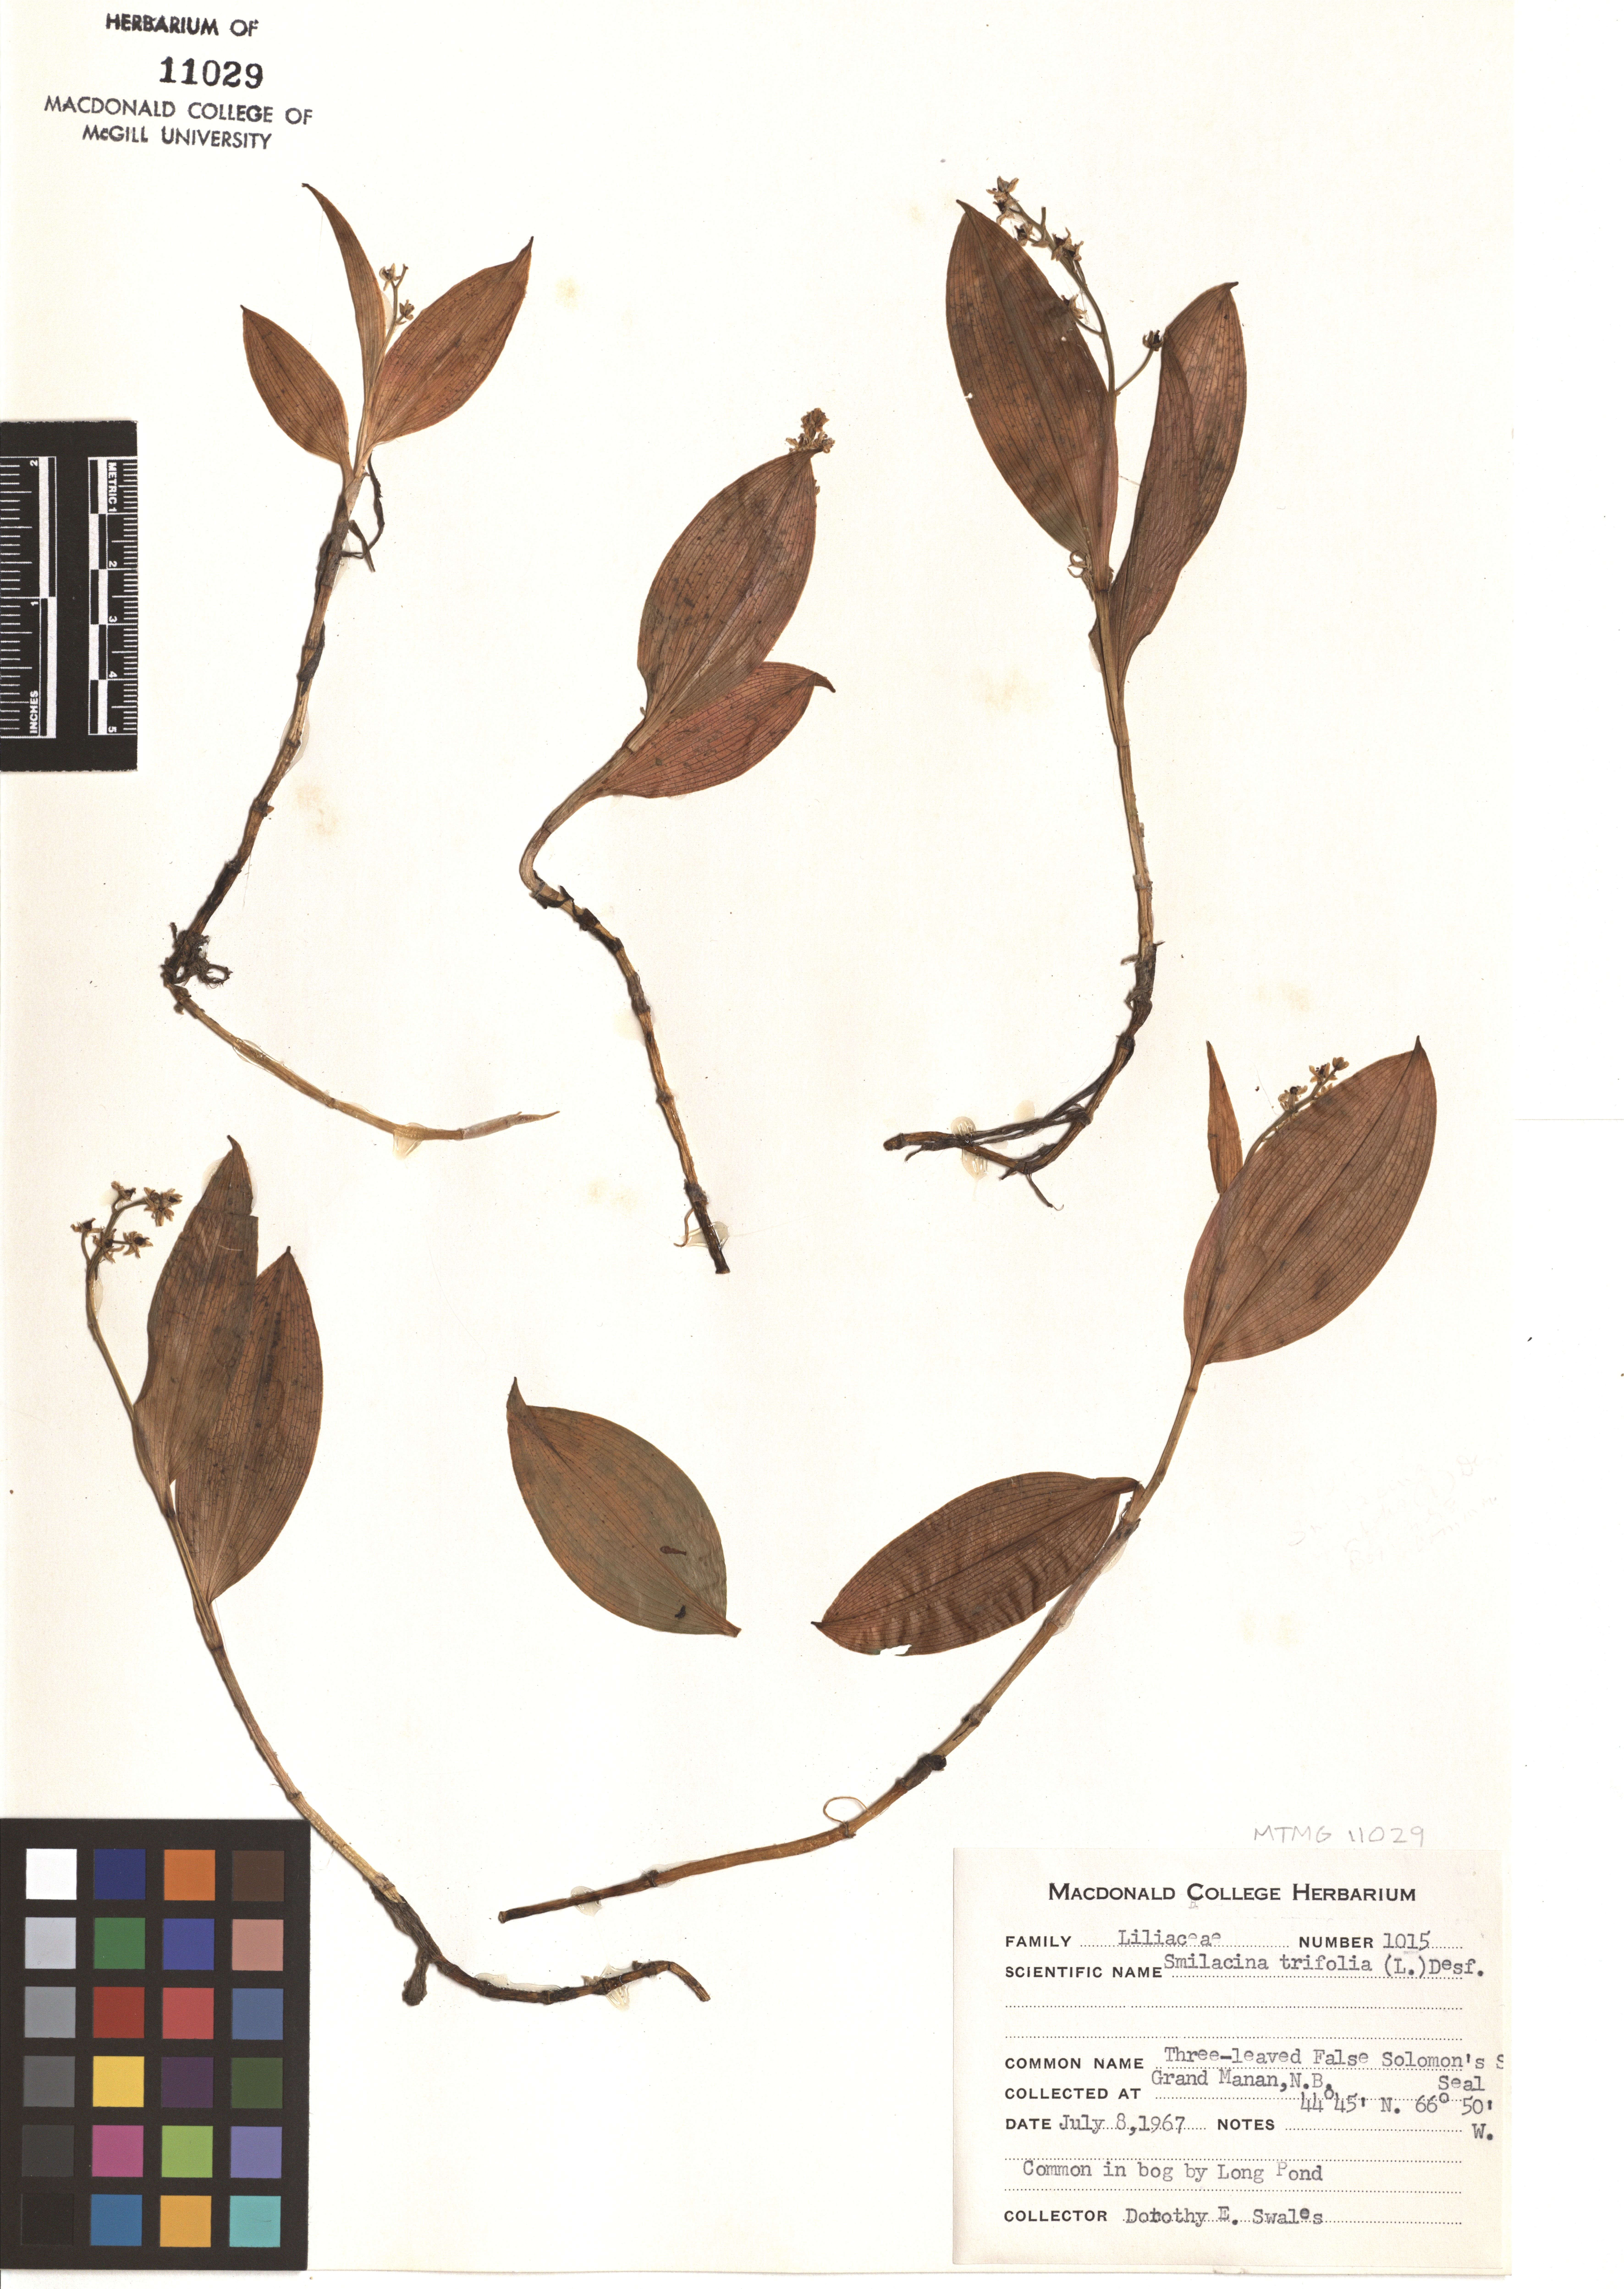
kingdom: Plantae
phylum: Tracheophyta
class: Liliopsida
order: Asparagales
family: Asparagaceae
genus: Maianthemum
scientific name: Maianthemum trifolium
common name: Swamp false solomon's seal
